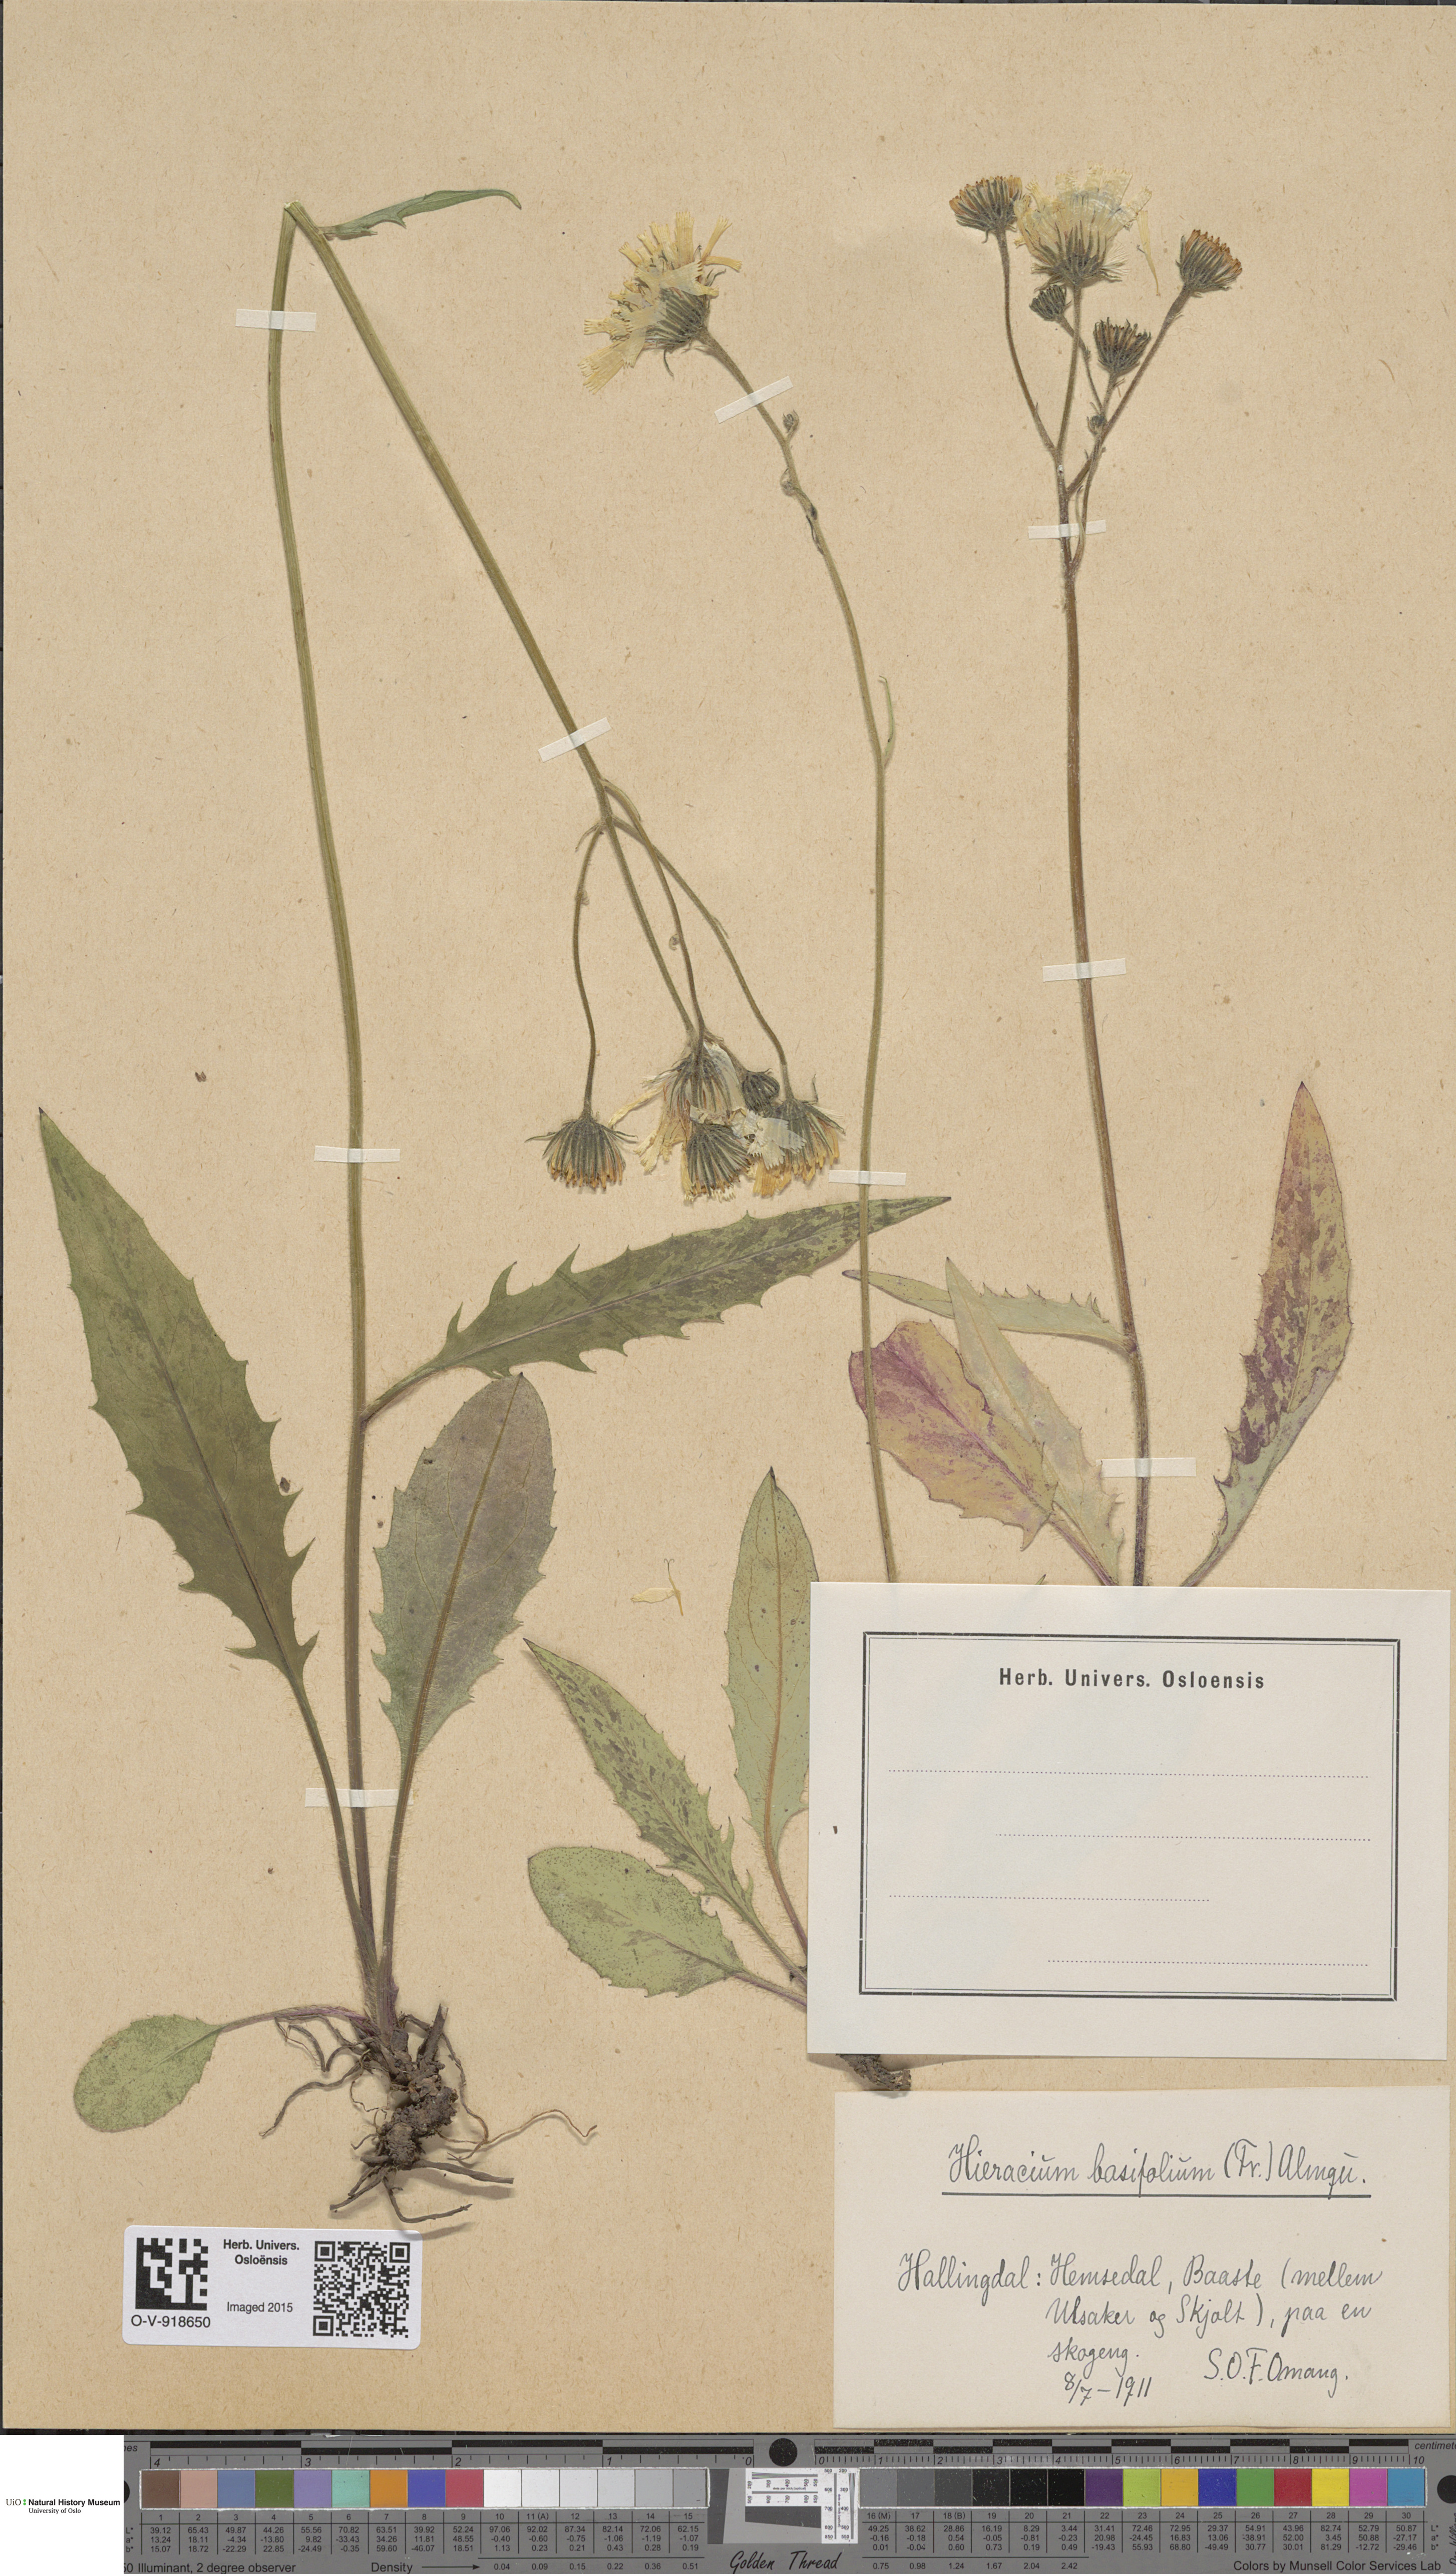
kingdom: Plantae
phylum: Tracheophyta
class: Magnoliopsida
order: Asterales
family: Asteraceae
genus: Hieracium
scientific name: Hieracium basifolium
